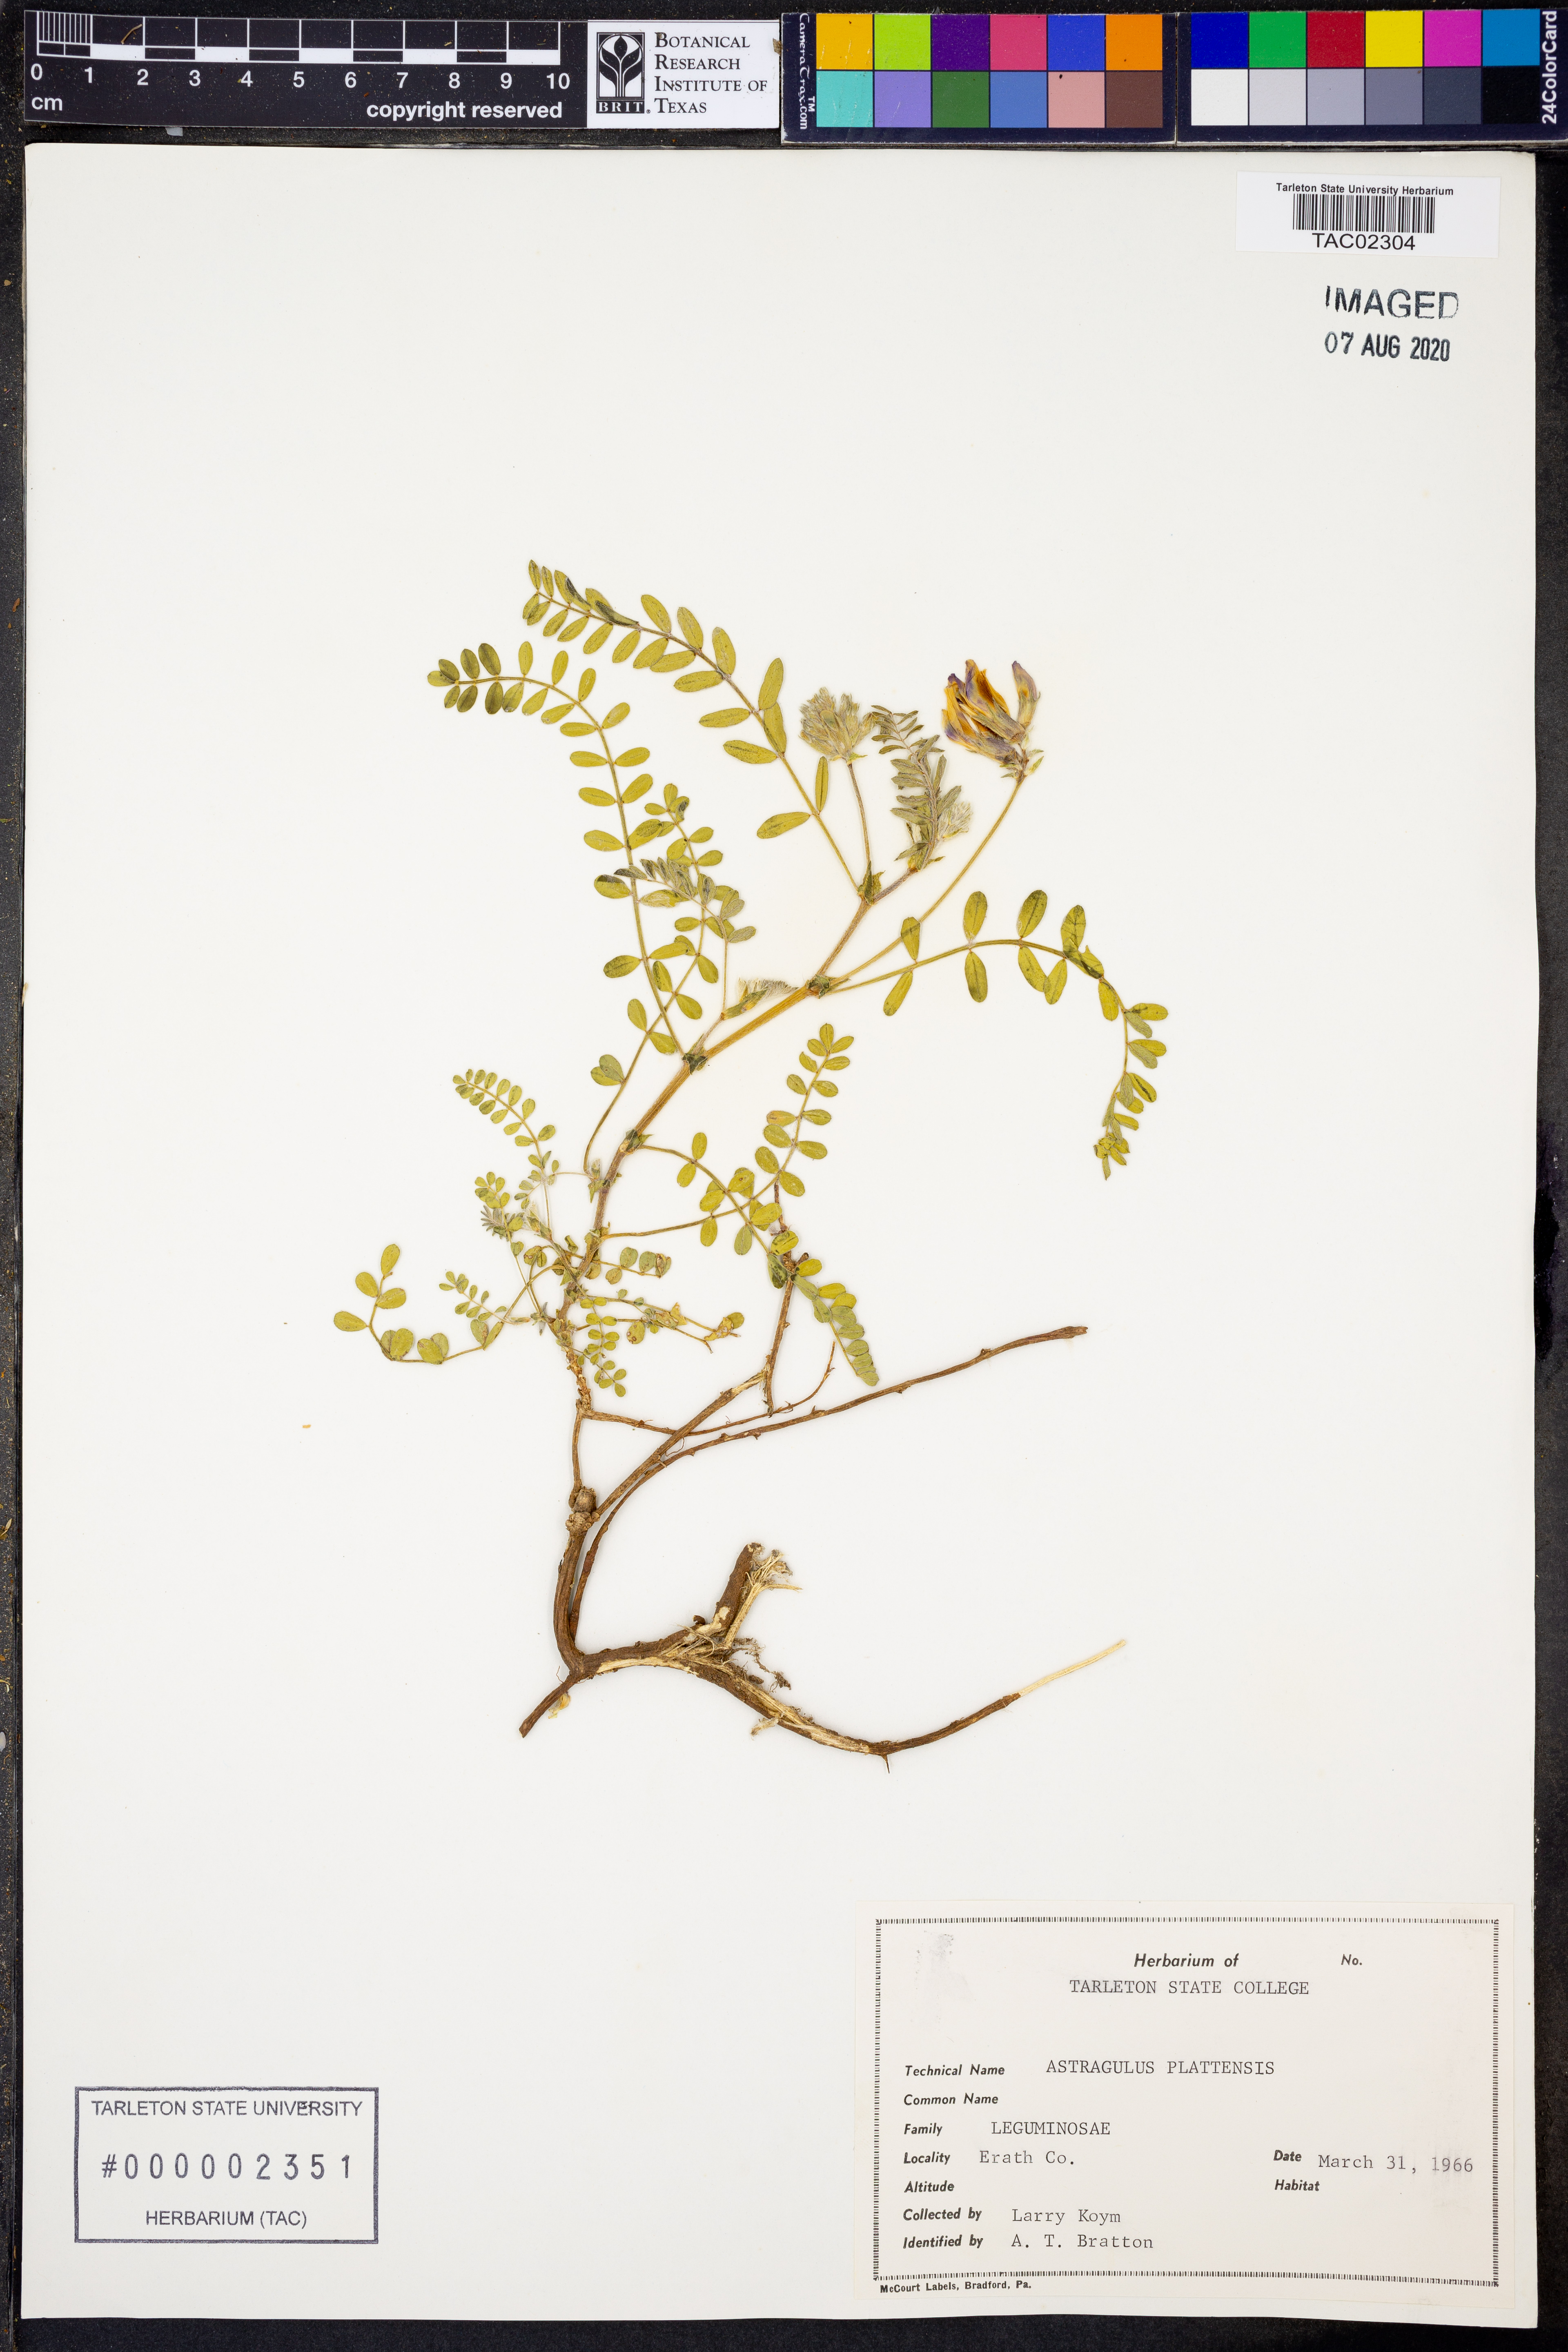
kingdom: Plantae
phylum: Tracheophyta
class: Magnoliopsida
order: Fabales
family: Fabaceae
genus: Astragalus
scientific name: Astragalus plattensis
